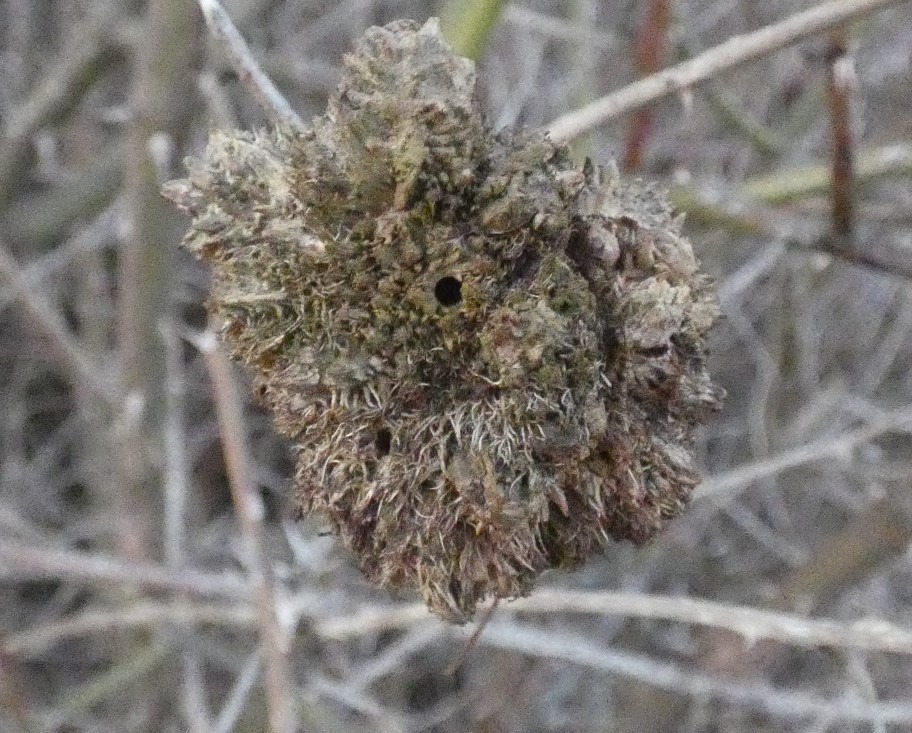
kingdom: Animalia
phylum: Arthropoda
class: Insecta
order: Hymenoptera
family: Cynipidae
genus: Diplolepis
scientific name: Diplolepis rosae
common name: Bedeguargalhveps
